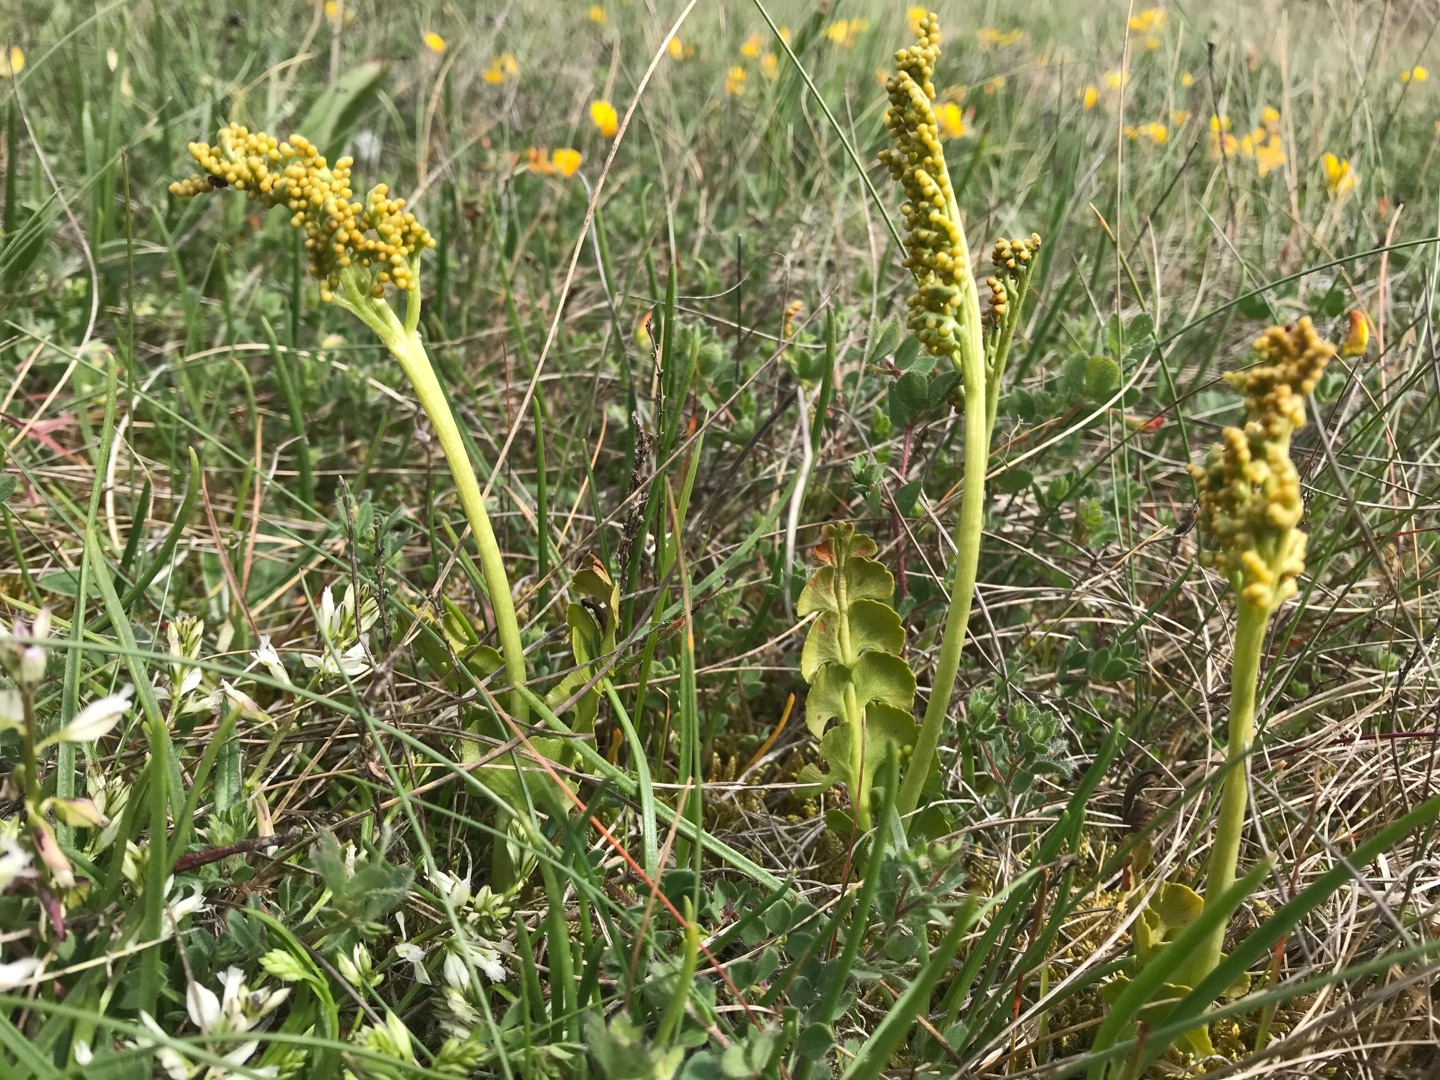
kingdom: Plantae
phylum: Tracheophyta
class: Polypodiopsida
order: Ophioglossales
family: Ophioglossaceae
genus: Botrychium
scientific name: Botrychium lunaria
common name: Almindelig månerude
